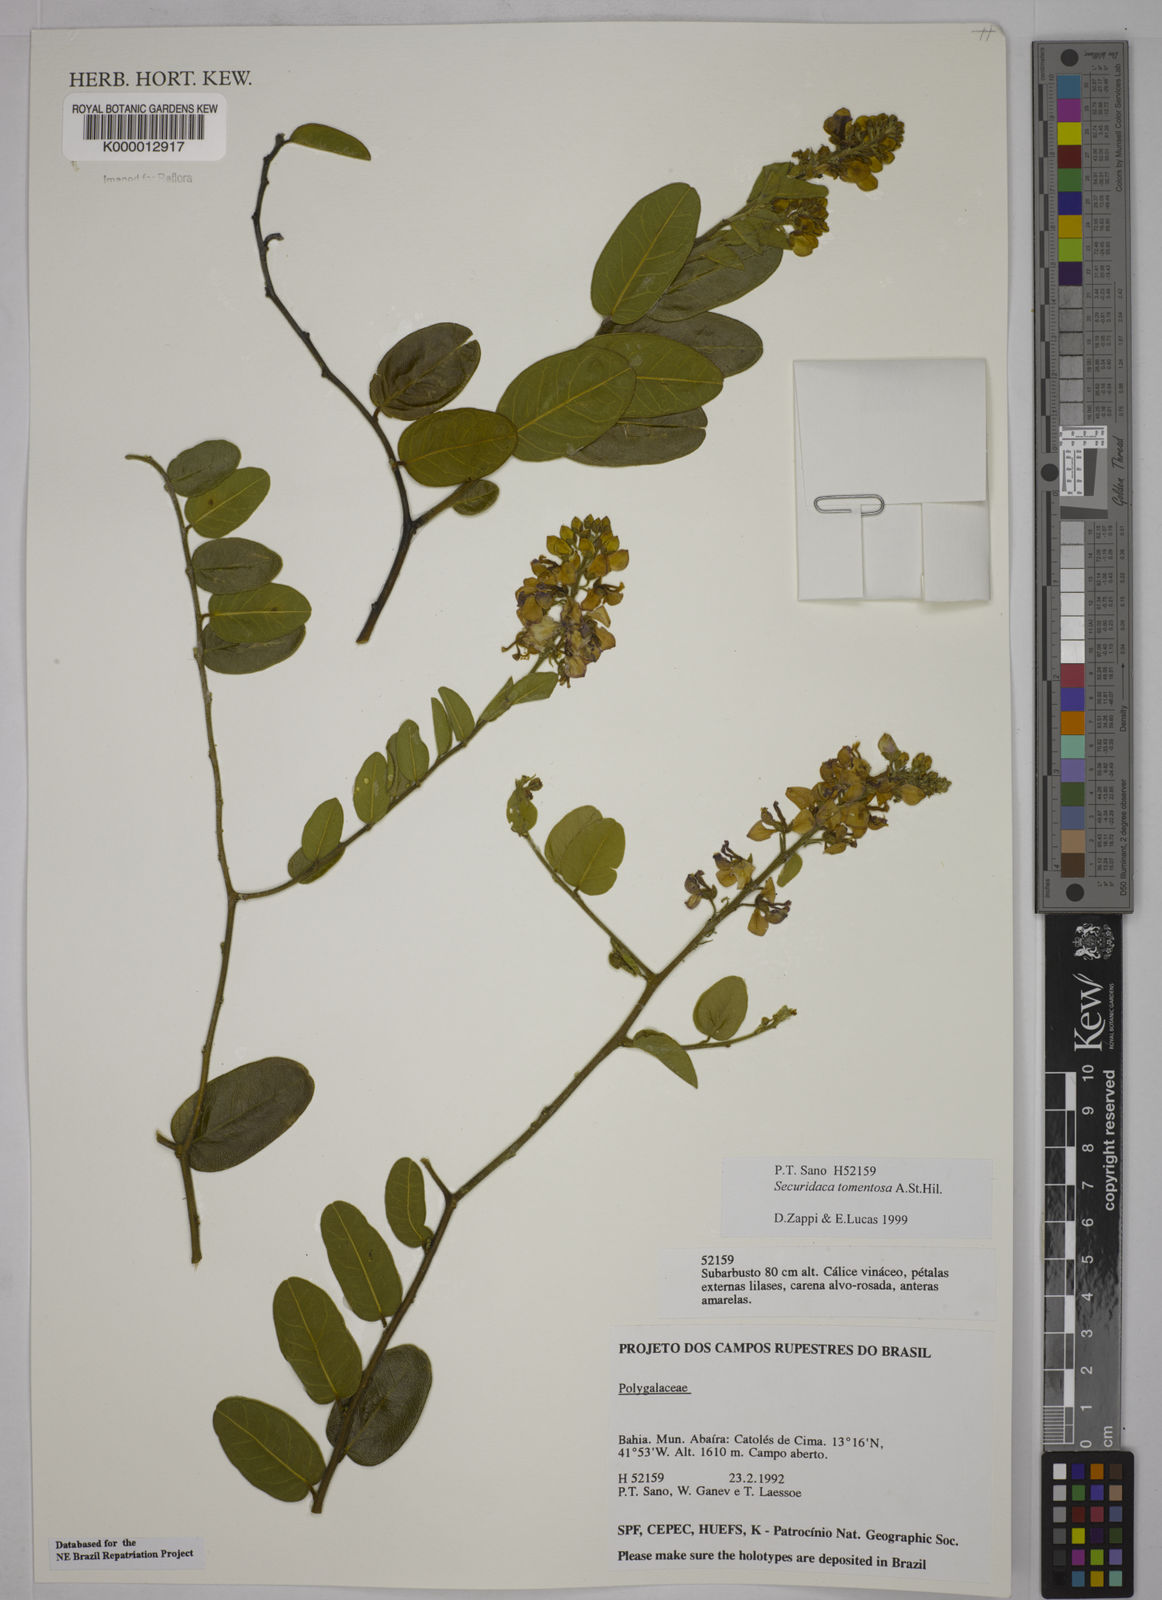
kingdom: Plantae
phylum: Tracheophyta
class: Magnoliopsida
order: Fabales
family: Polygalaceae
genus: Securidaca
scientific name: Securidaca tomentosa
